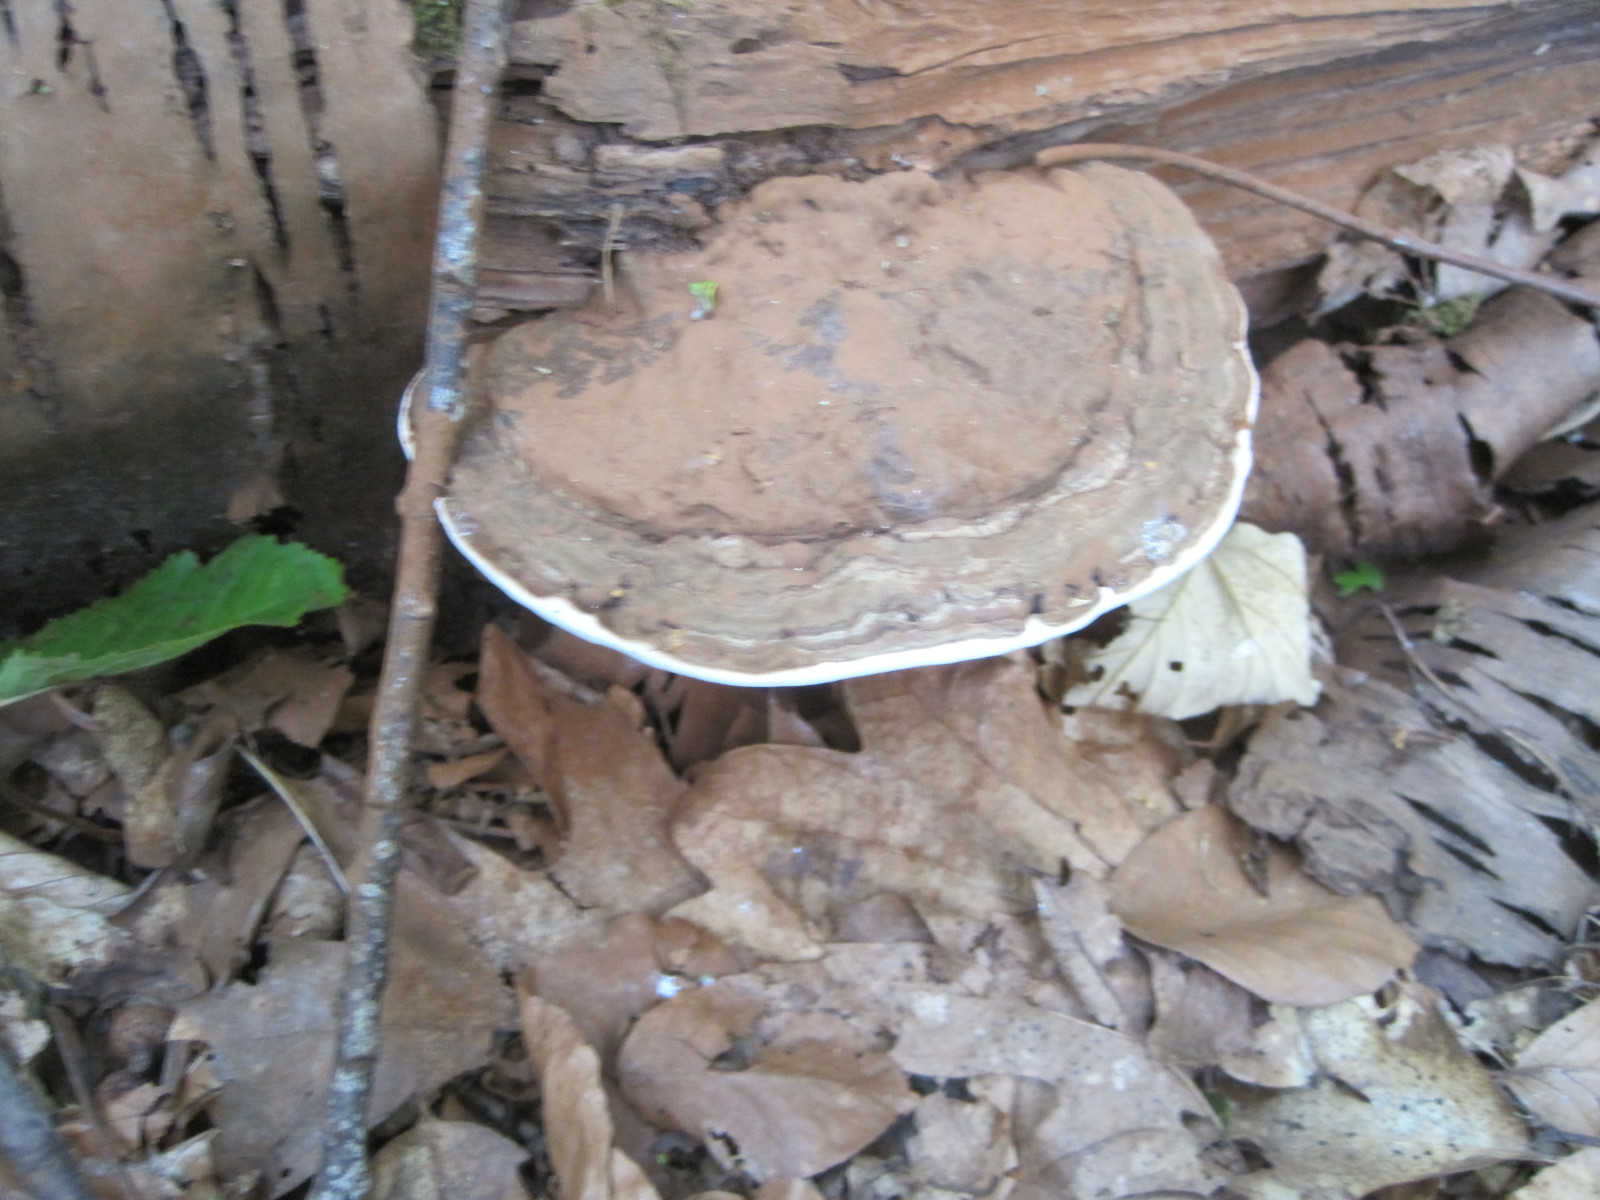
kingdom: Fungi
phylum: Basidiomycota
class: Agaricomycetes
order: Polyporales
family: Polyporaceae
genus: Ganoderma
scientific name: Ganoderma applanatum
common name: flad lakporesvamp
